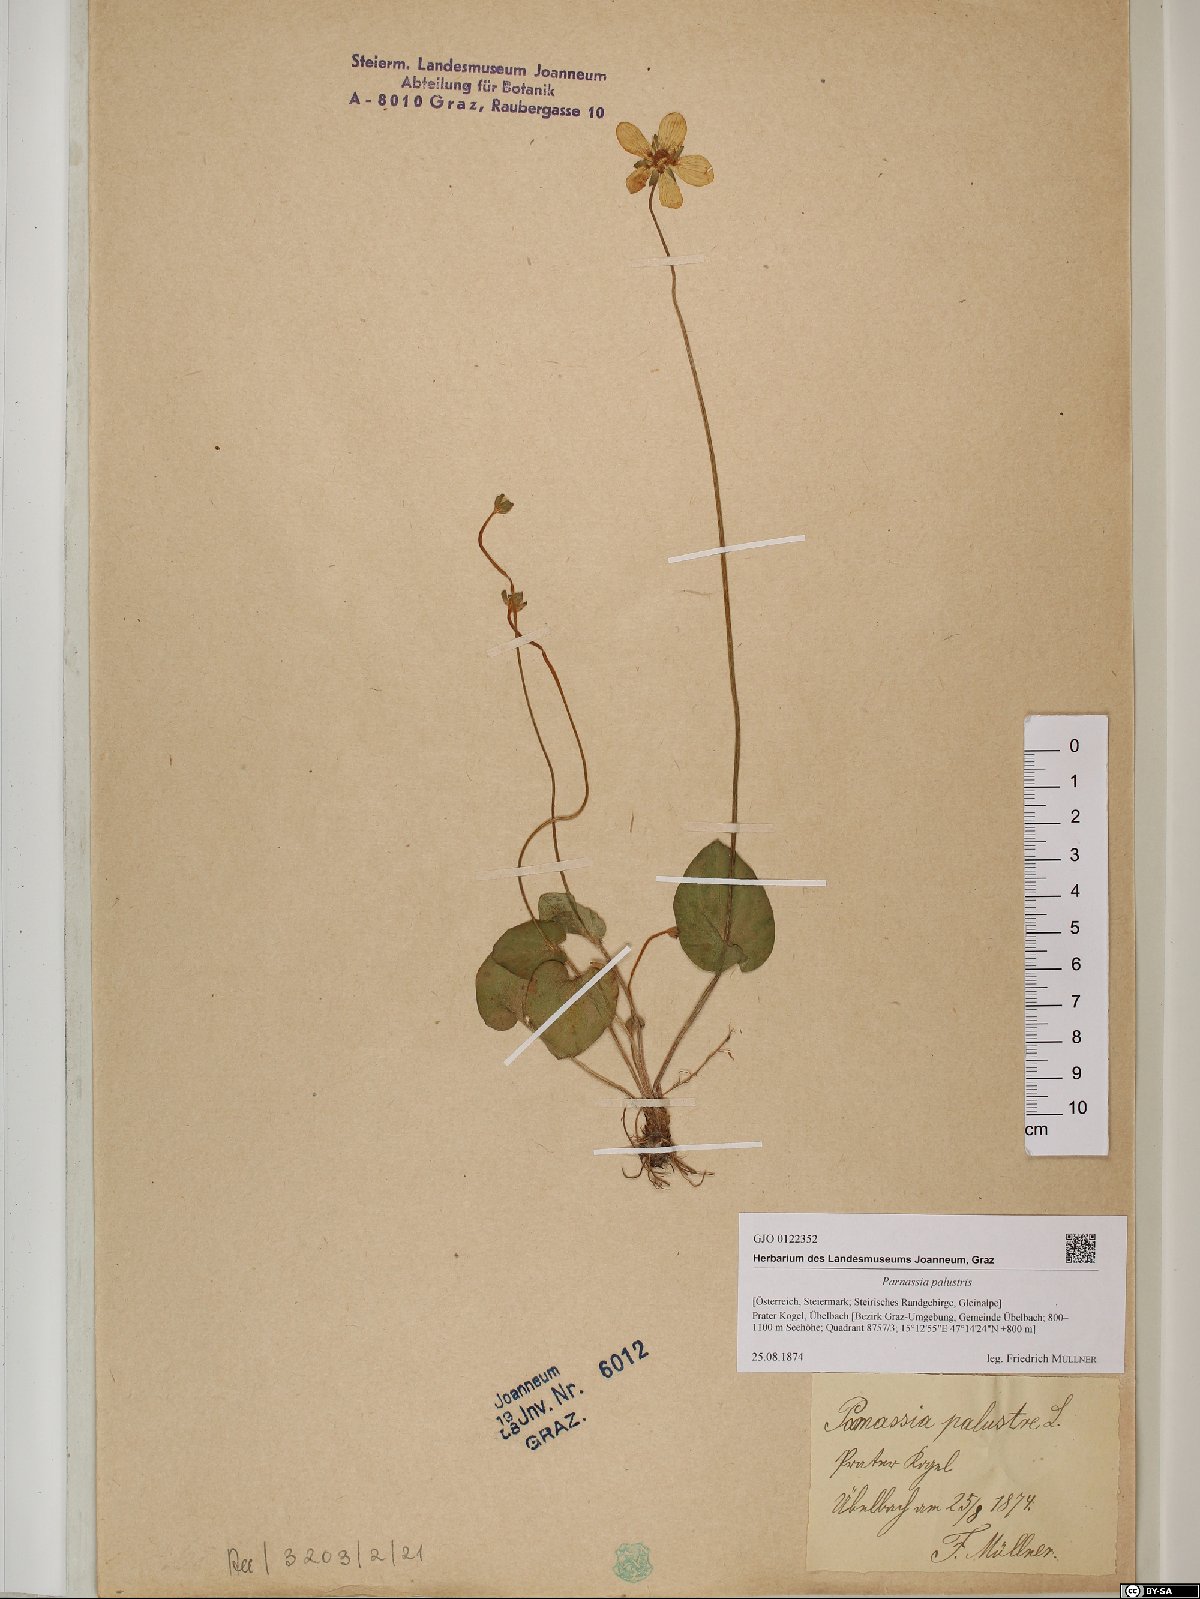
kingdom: Plantae
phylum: Tracheophyta
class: Magnoliopsida
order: Celastrales
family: Parnassiaceae
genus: Parnassia
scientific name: Parnassia palustris
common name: Grass-of-parnassus
